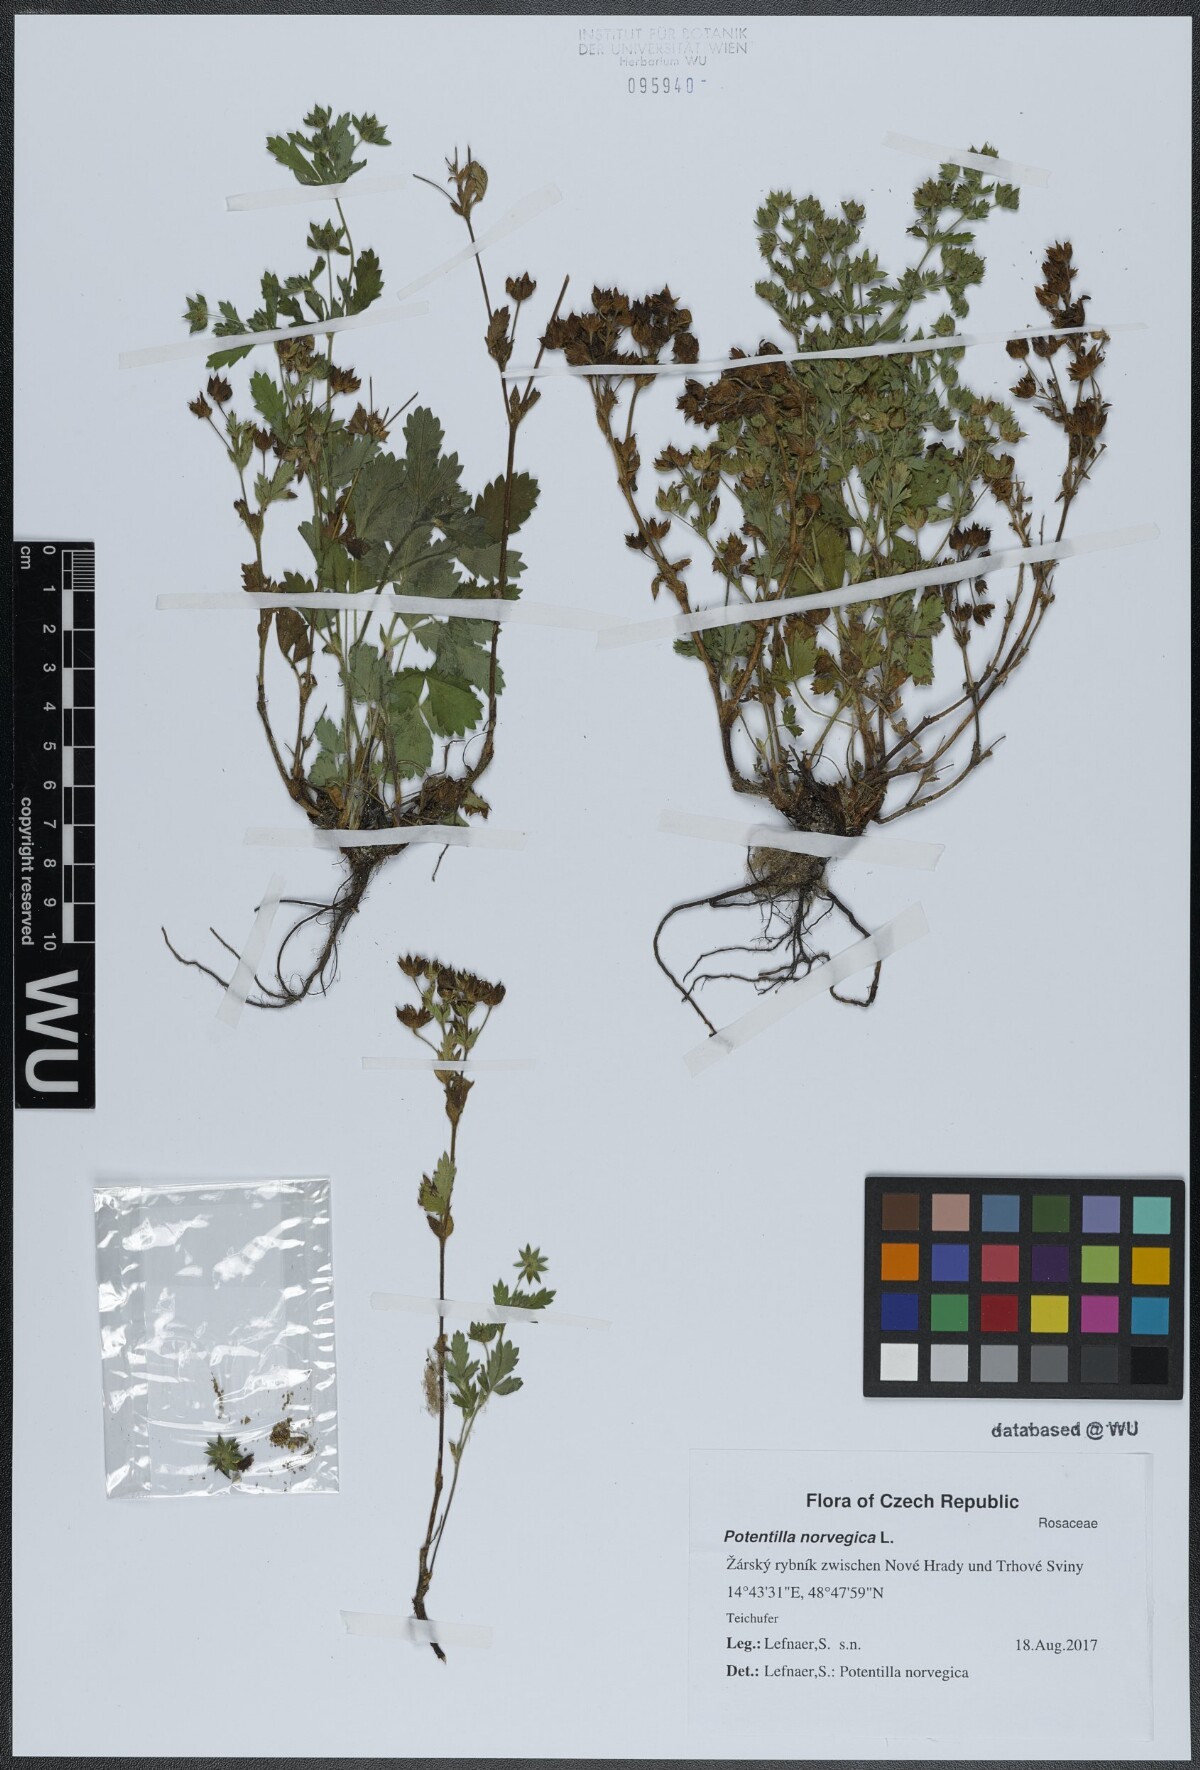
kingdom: Plantae
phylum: Tracheophyta
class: Magnoliopsida
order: Rosales
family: Rosaceae
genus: Potentilla
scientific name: Potentilla norvegica
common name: Ternate-leaved cinquefoil
